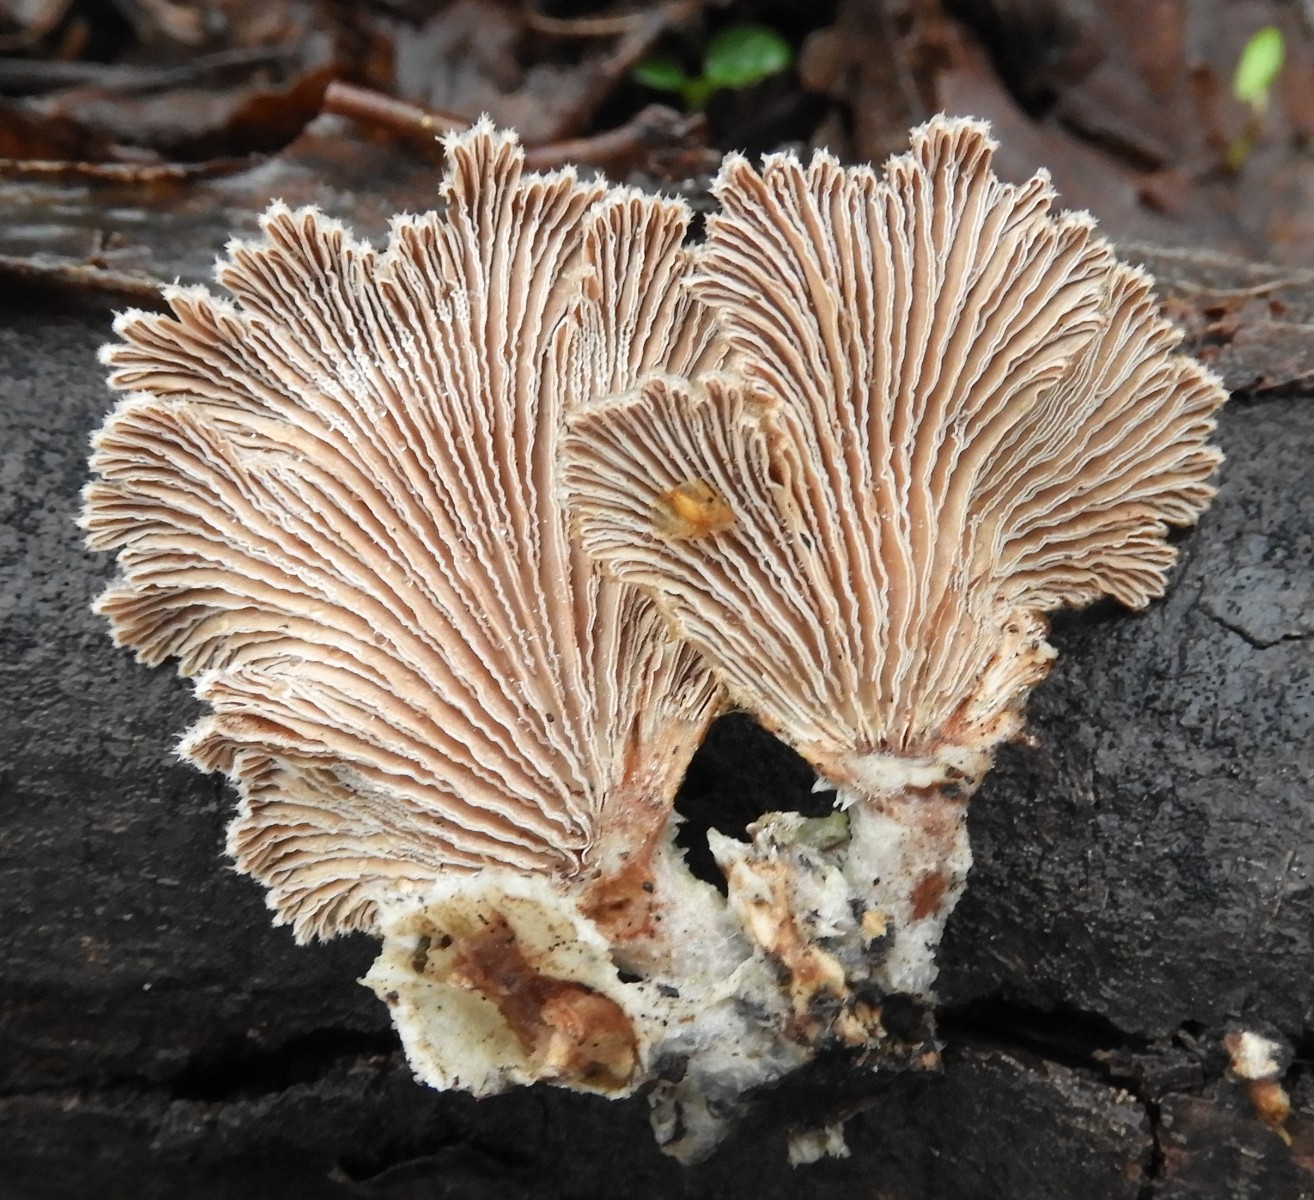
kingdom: Fungi
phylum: Basidiomycota
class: Agaricomycetes
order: Agaricales
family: Schizophyllaceae
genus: Schizophyllum
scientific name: Schizophyllum commune
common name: kløvblad
